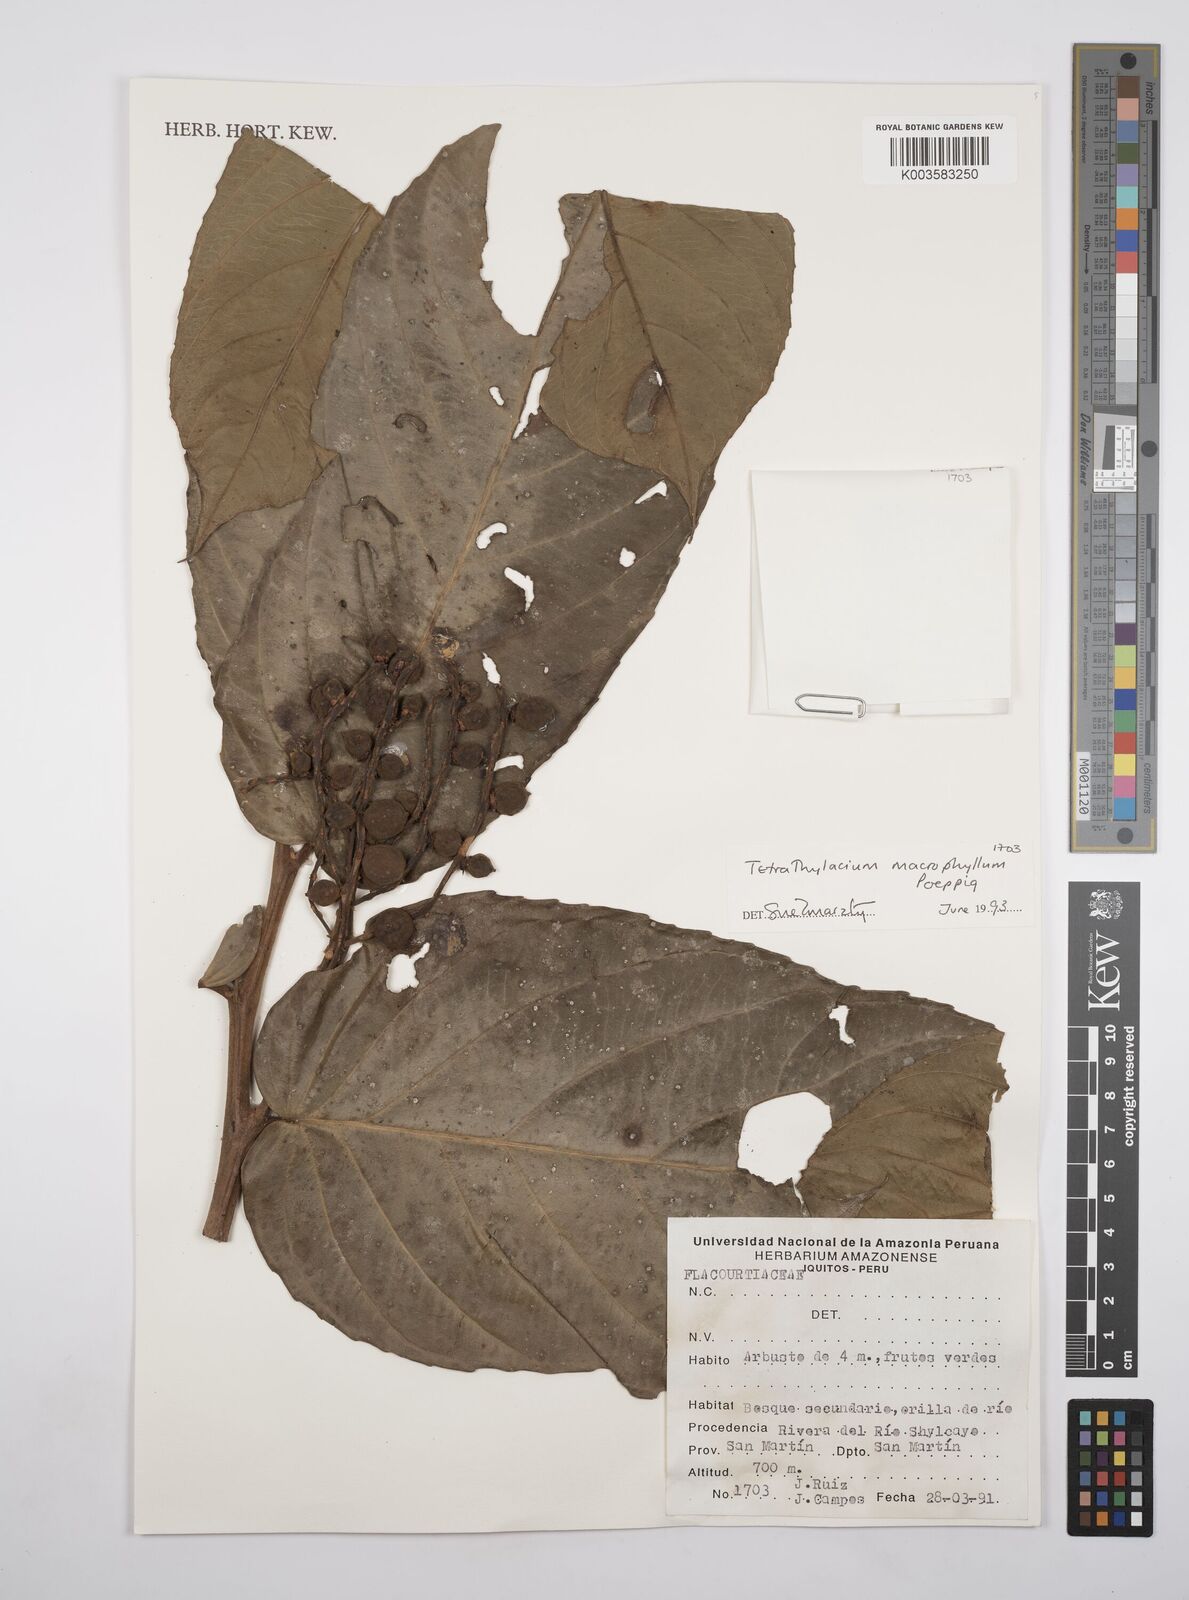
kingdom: Plantae
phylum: Tracheophyta
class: Magnoliopsida
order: Malpighiales
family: Salicaceae
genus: Tetrathylacium
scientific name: Tetrathylacium macrophyllum
